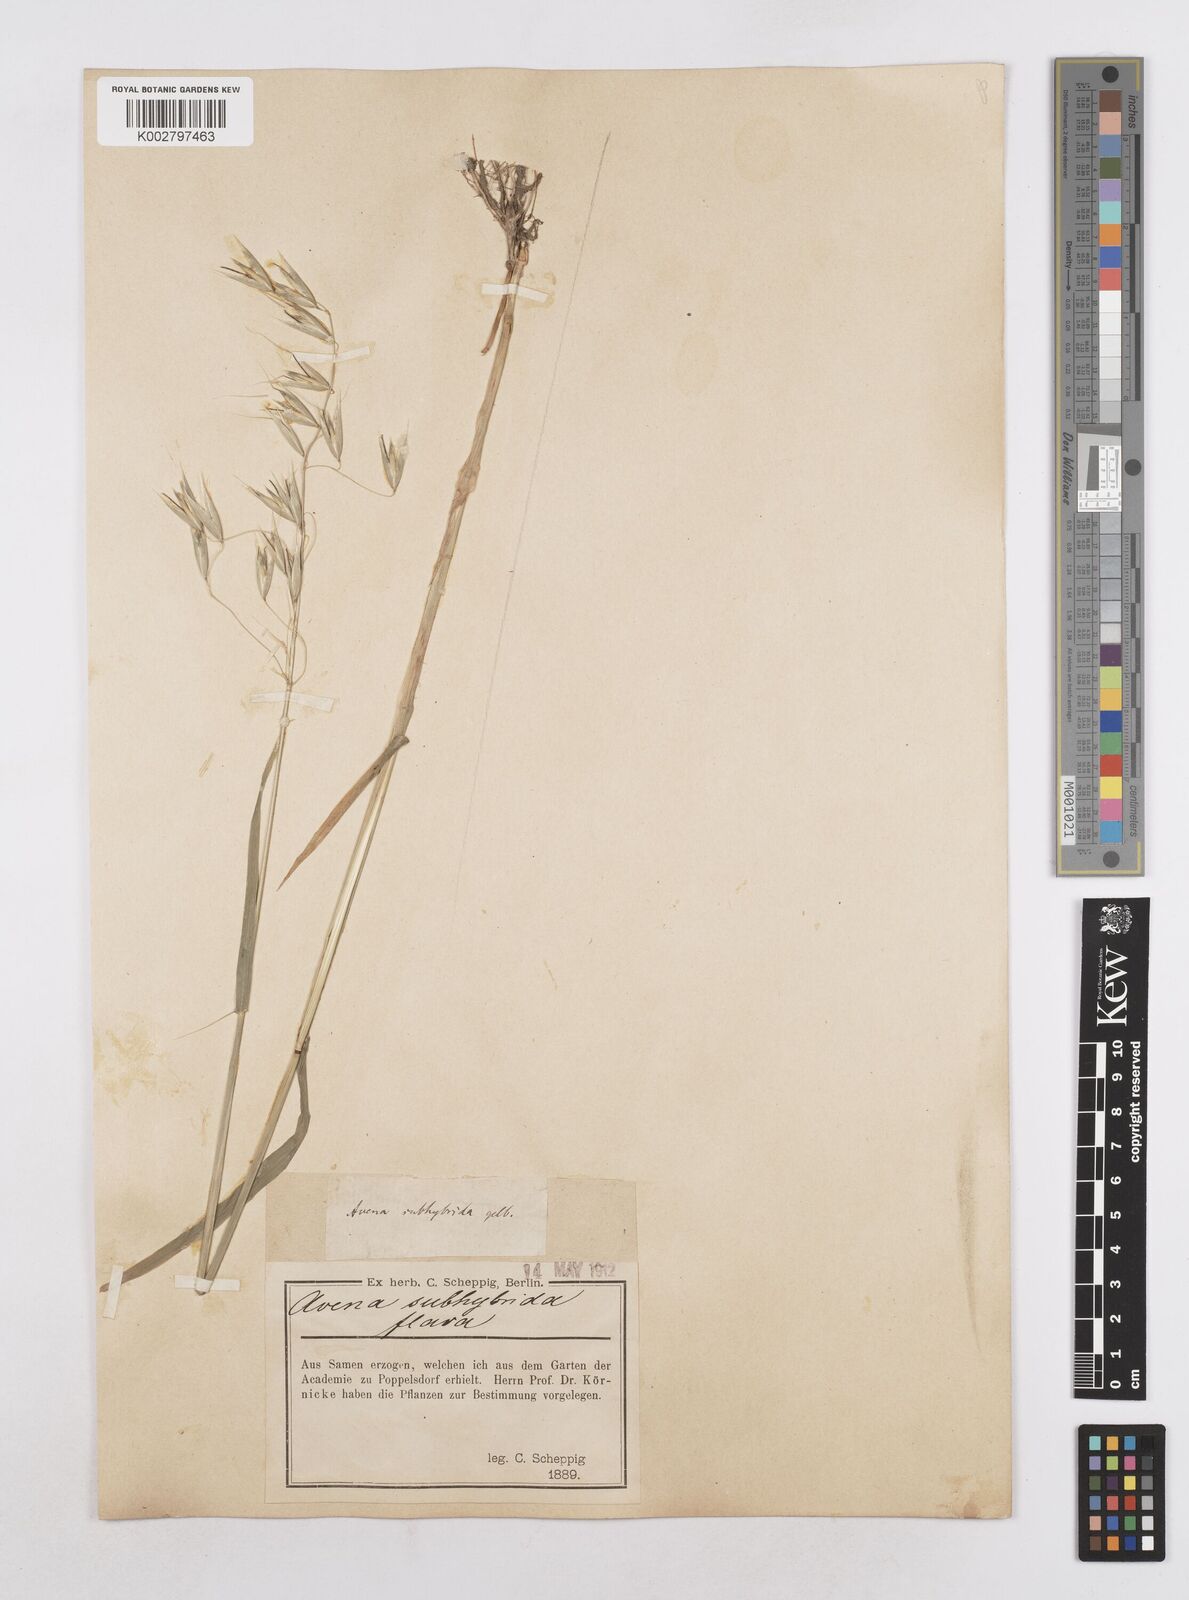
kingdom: Plantae
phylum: Tracheophyta
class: Liliopsida
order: Poales
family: Poaceae
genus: Avena
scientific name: Avena fatua
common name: Wild oat
